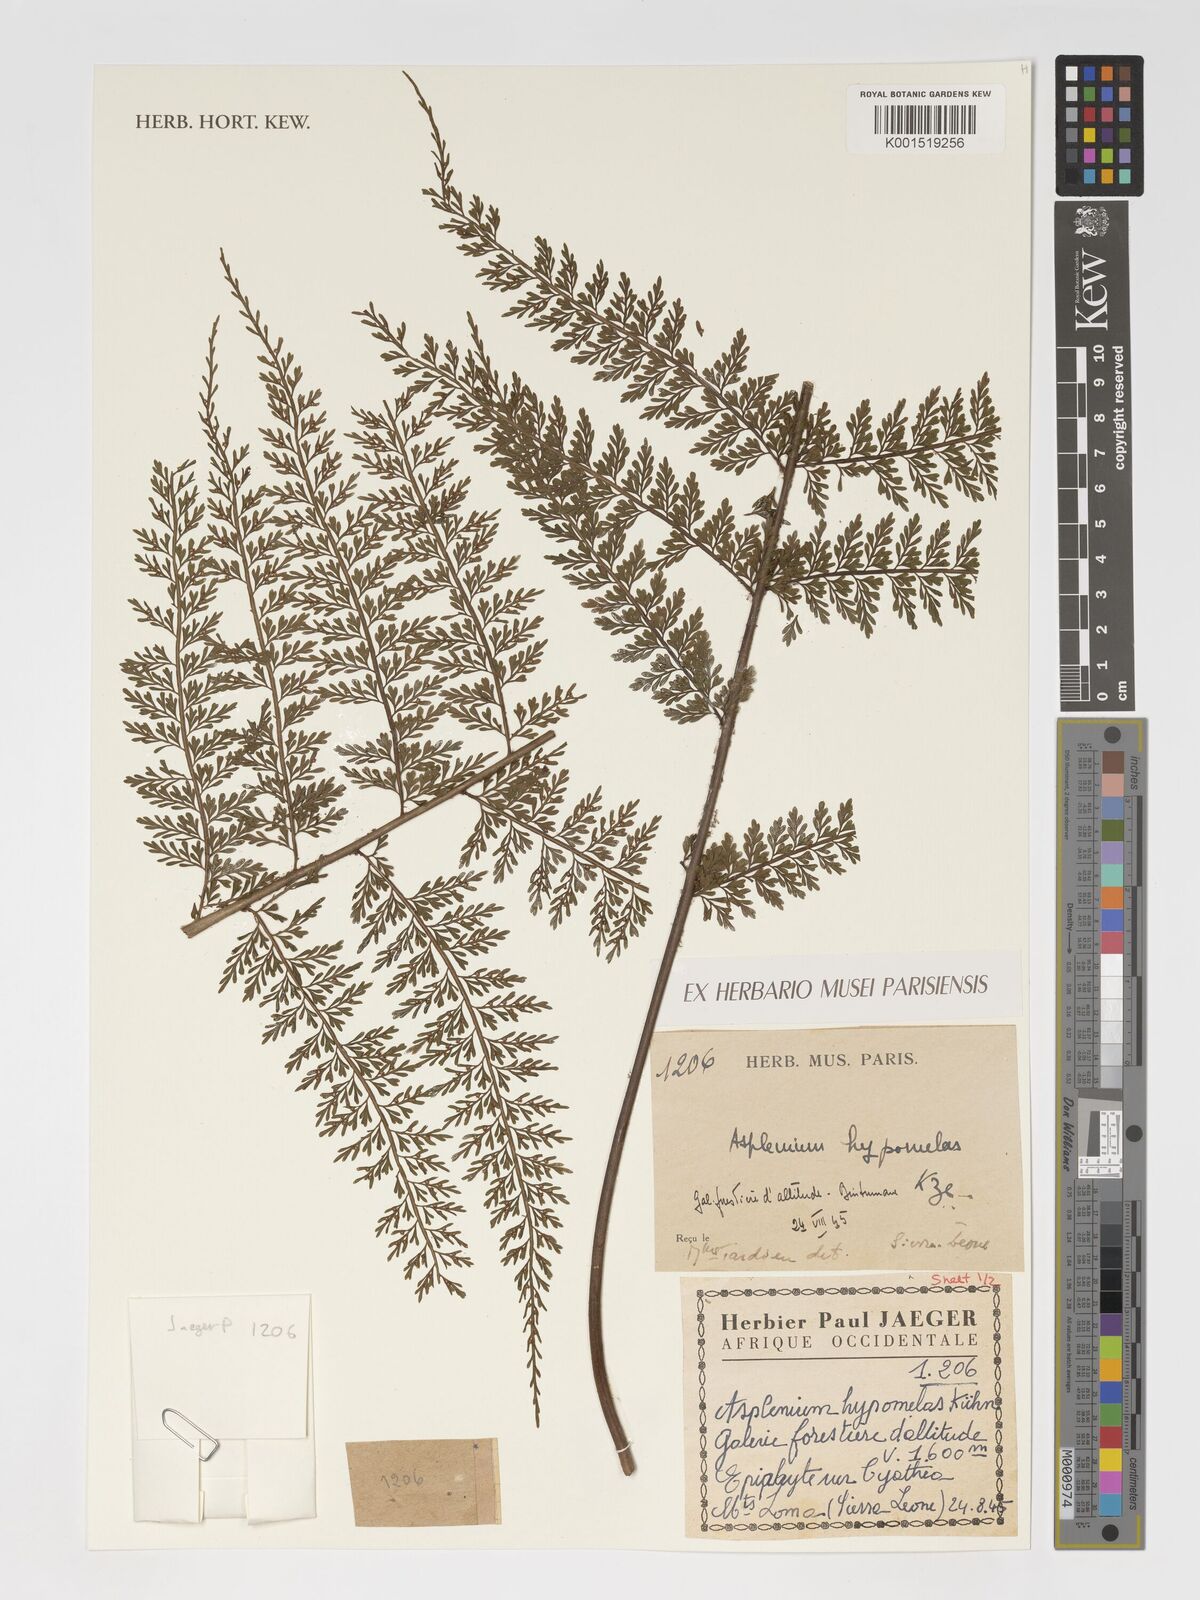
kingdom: Plantae
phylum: Tracheophyta
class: Polypodiopsida
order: Polypodiales
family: Aspleniaceae
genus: Asplenium
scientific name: Asplenium hypomelas
